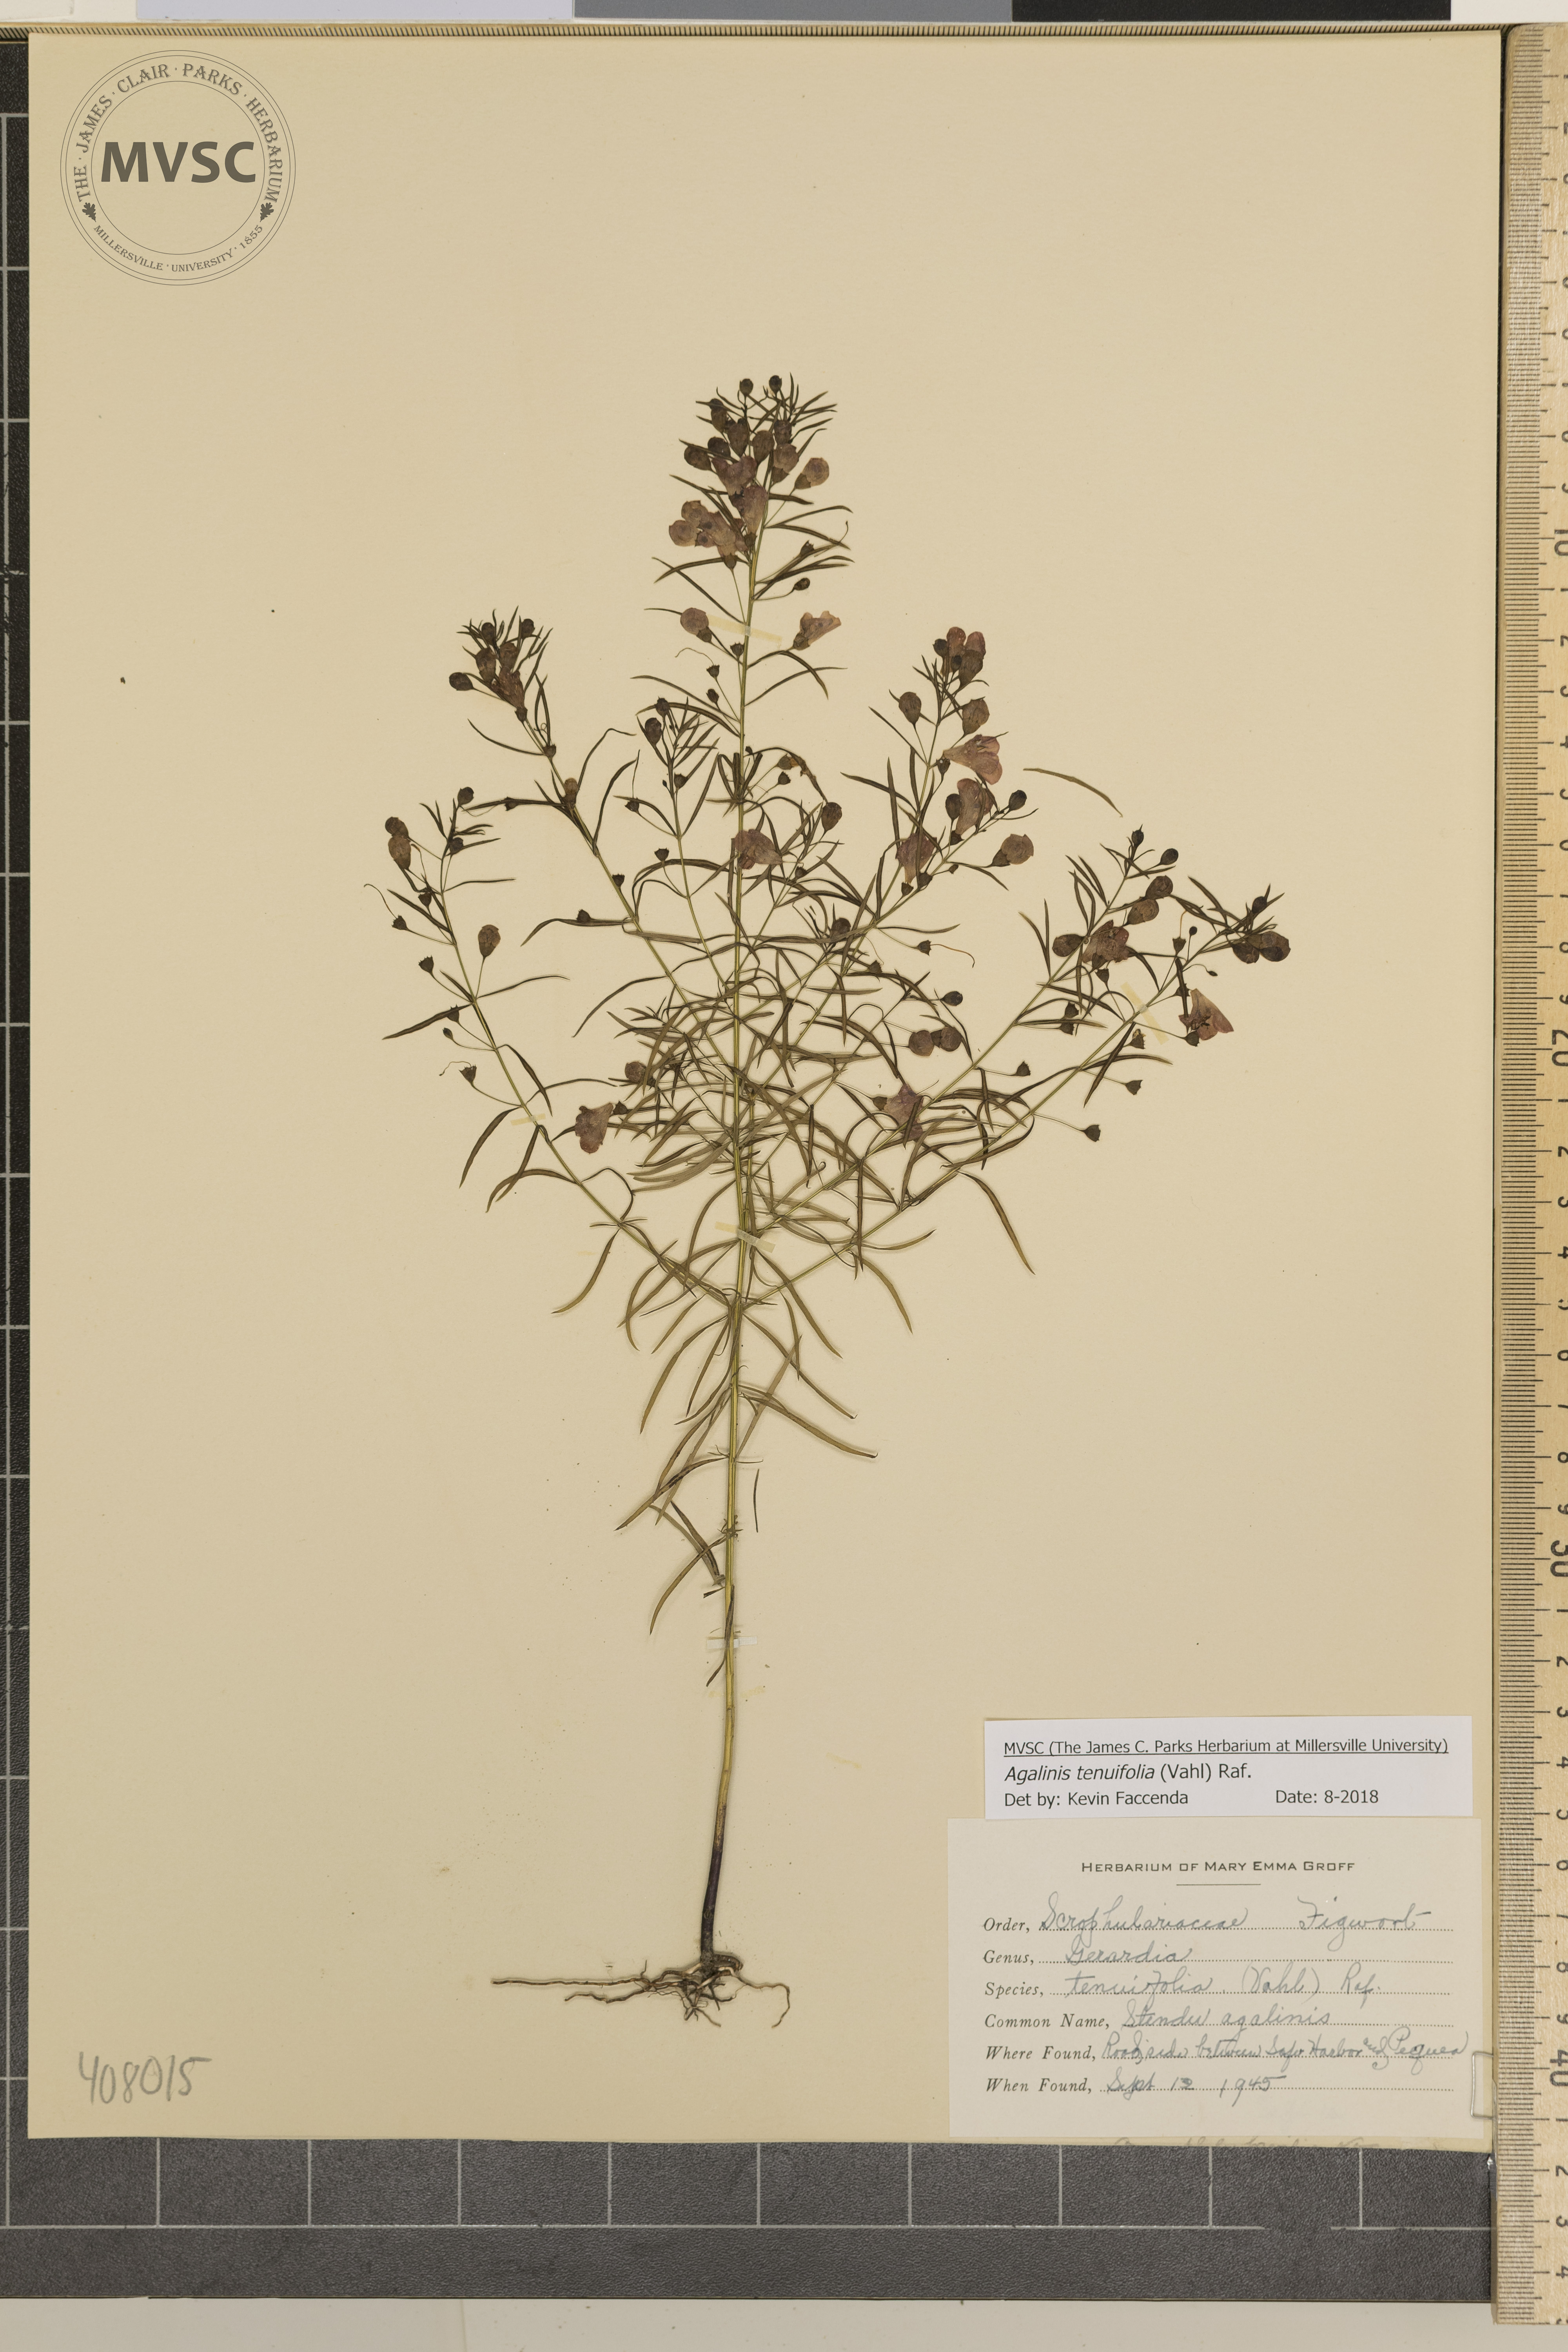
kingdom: Plantae
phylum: Tracheophyta
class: Magnoliopsida
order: Lamiales
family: Orobanchaceae
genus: Agalinis
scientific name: Agalinis tenuifolia
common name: Slender agalinis
